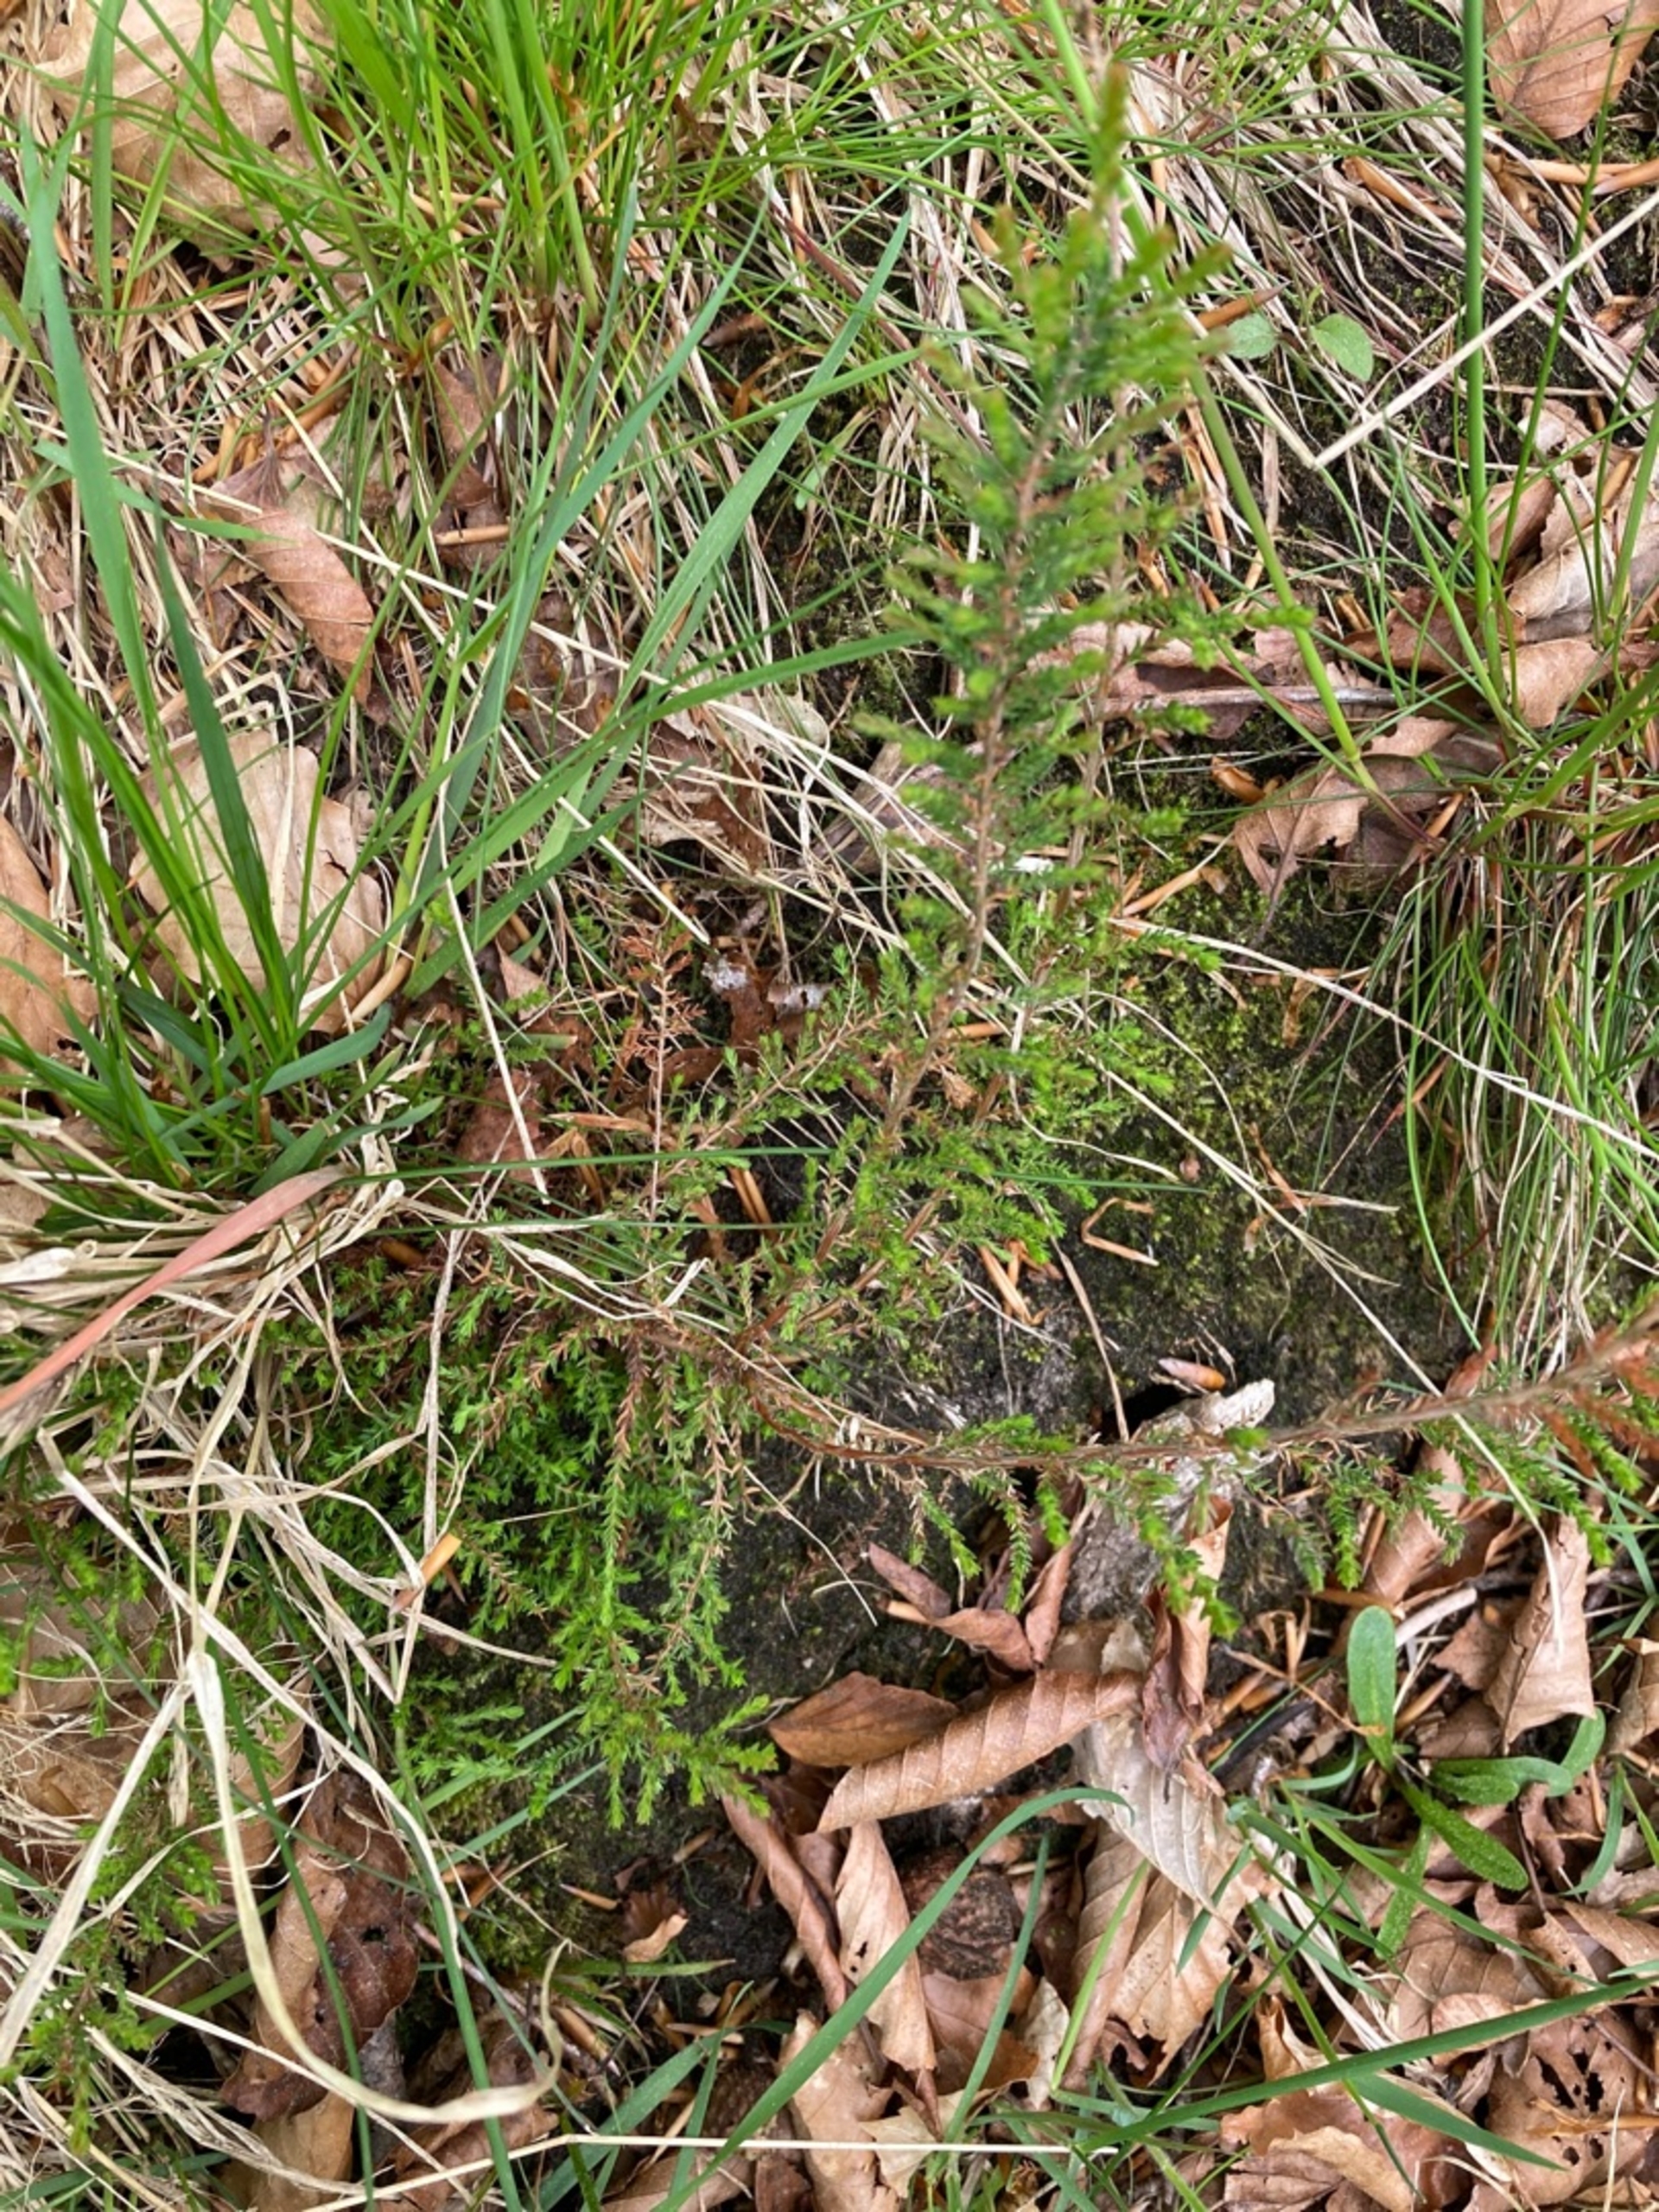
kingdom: Plantae
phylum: Tracheophyta
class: Magnoliopsida
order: Ericales
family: Ericaceae
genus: Calluna
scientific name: Calluna vulgaris
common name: Hedelyng
